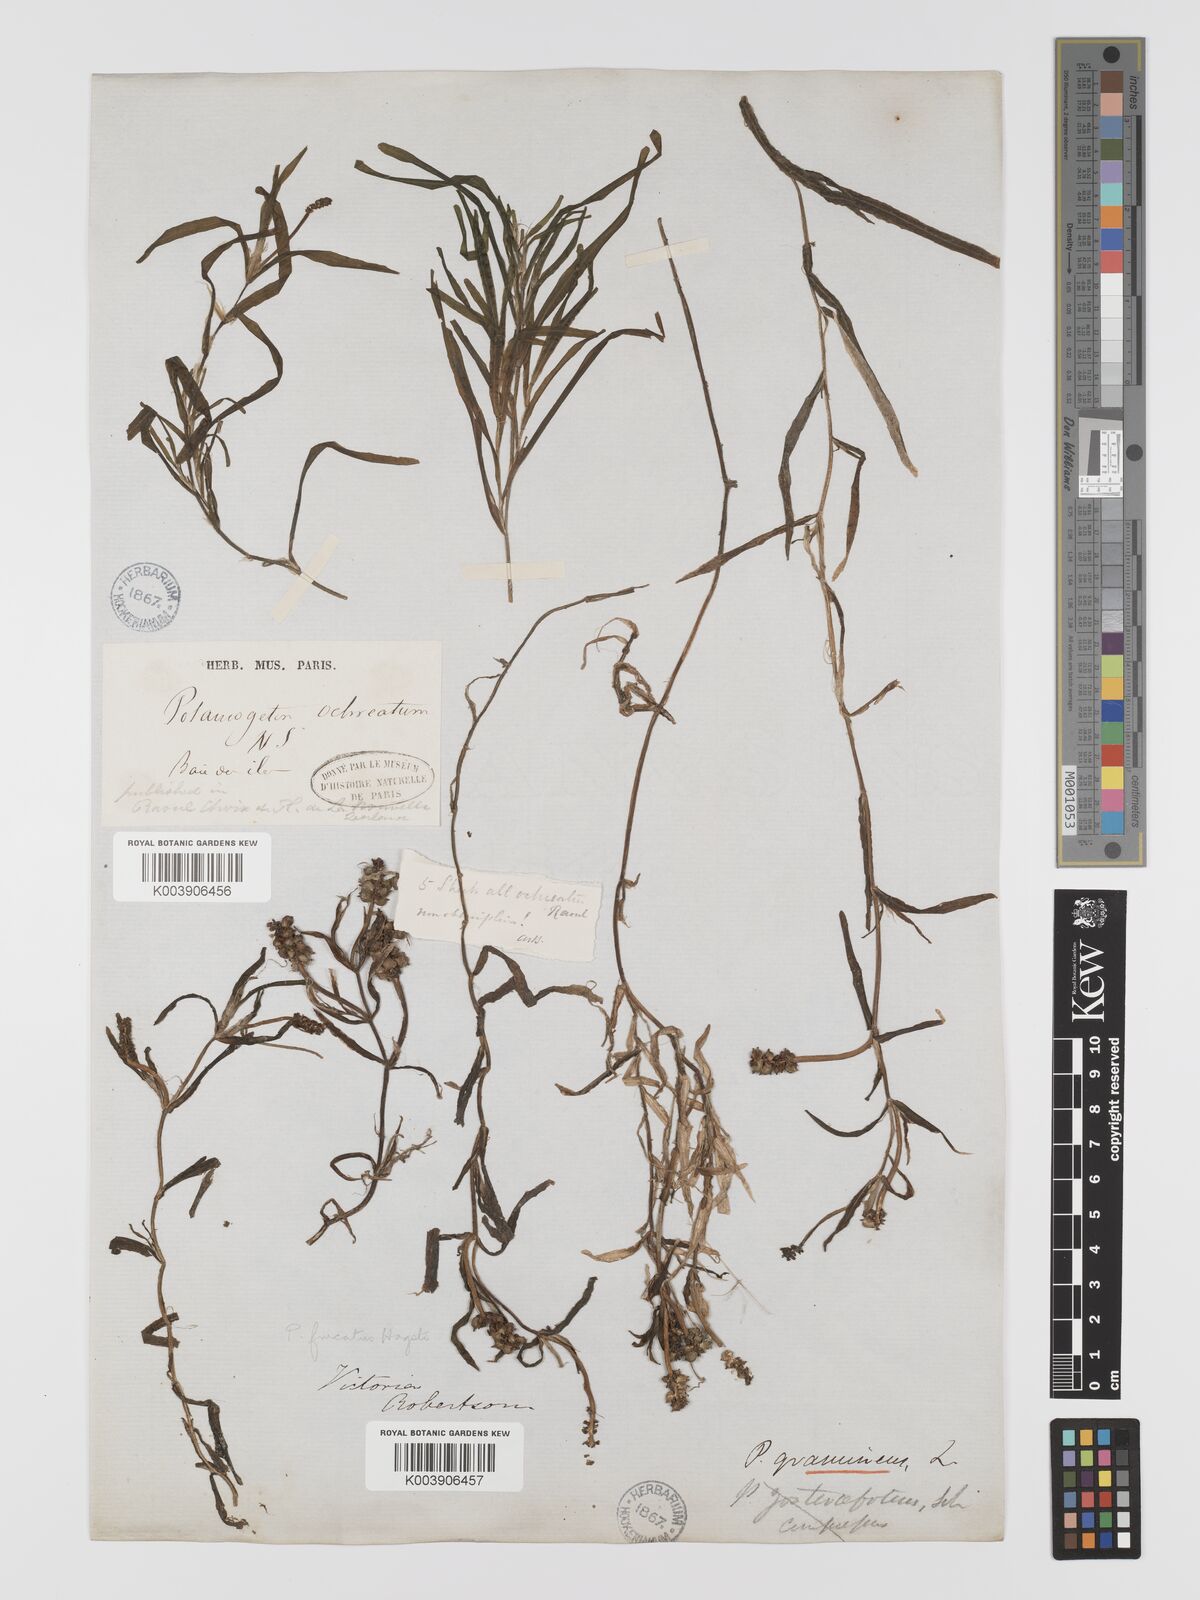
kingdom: Plantae
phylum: Tracheophyta
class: Liliopsida
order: Alismatales
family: Potamogetonaceae
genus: Potamogeton
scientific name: Potamogeton ochreatus
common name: Blunt pondweed
